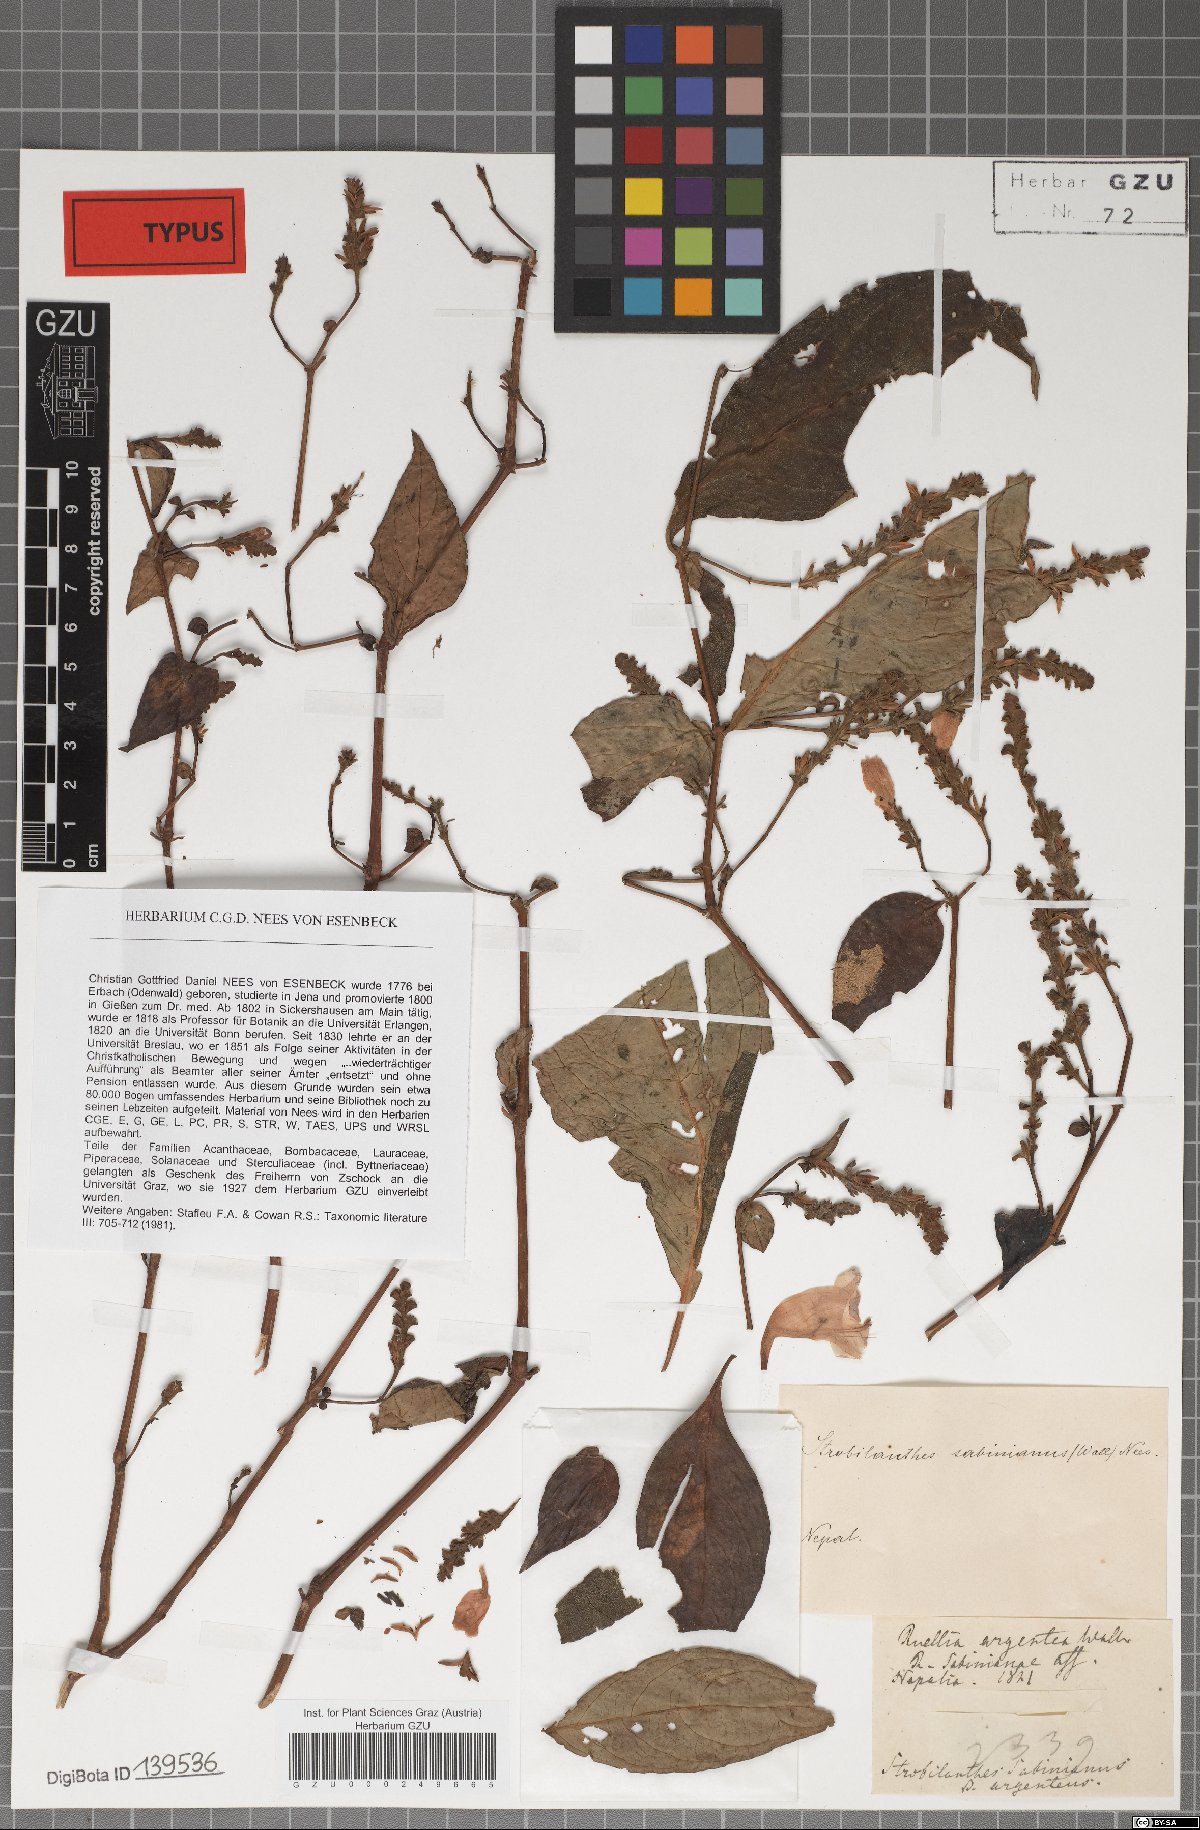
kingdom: Plantae
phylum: Tracheophyta
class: Magnoliopsida
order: Lamiales
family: Acanthaceae
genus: Strobilanthes
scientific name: Strobilanthes sabiniana
